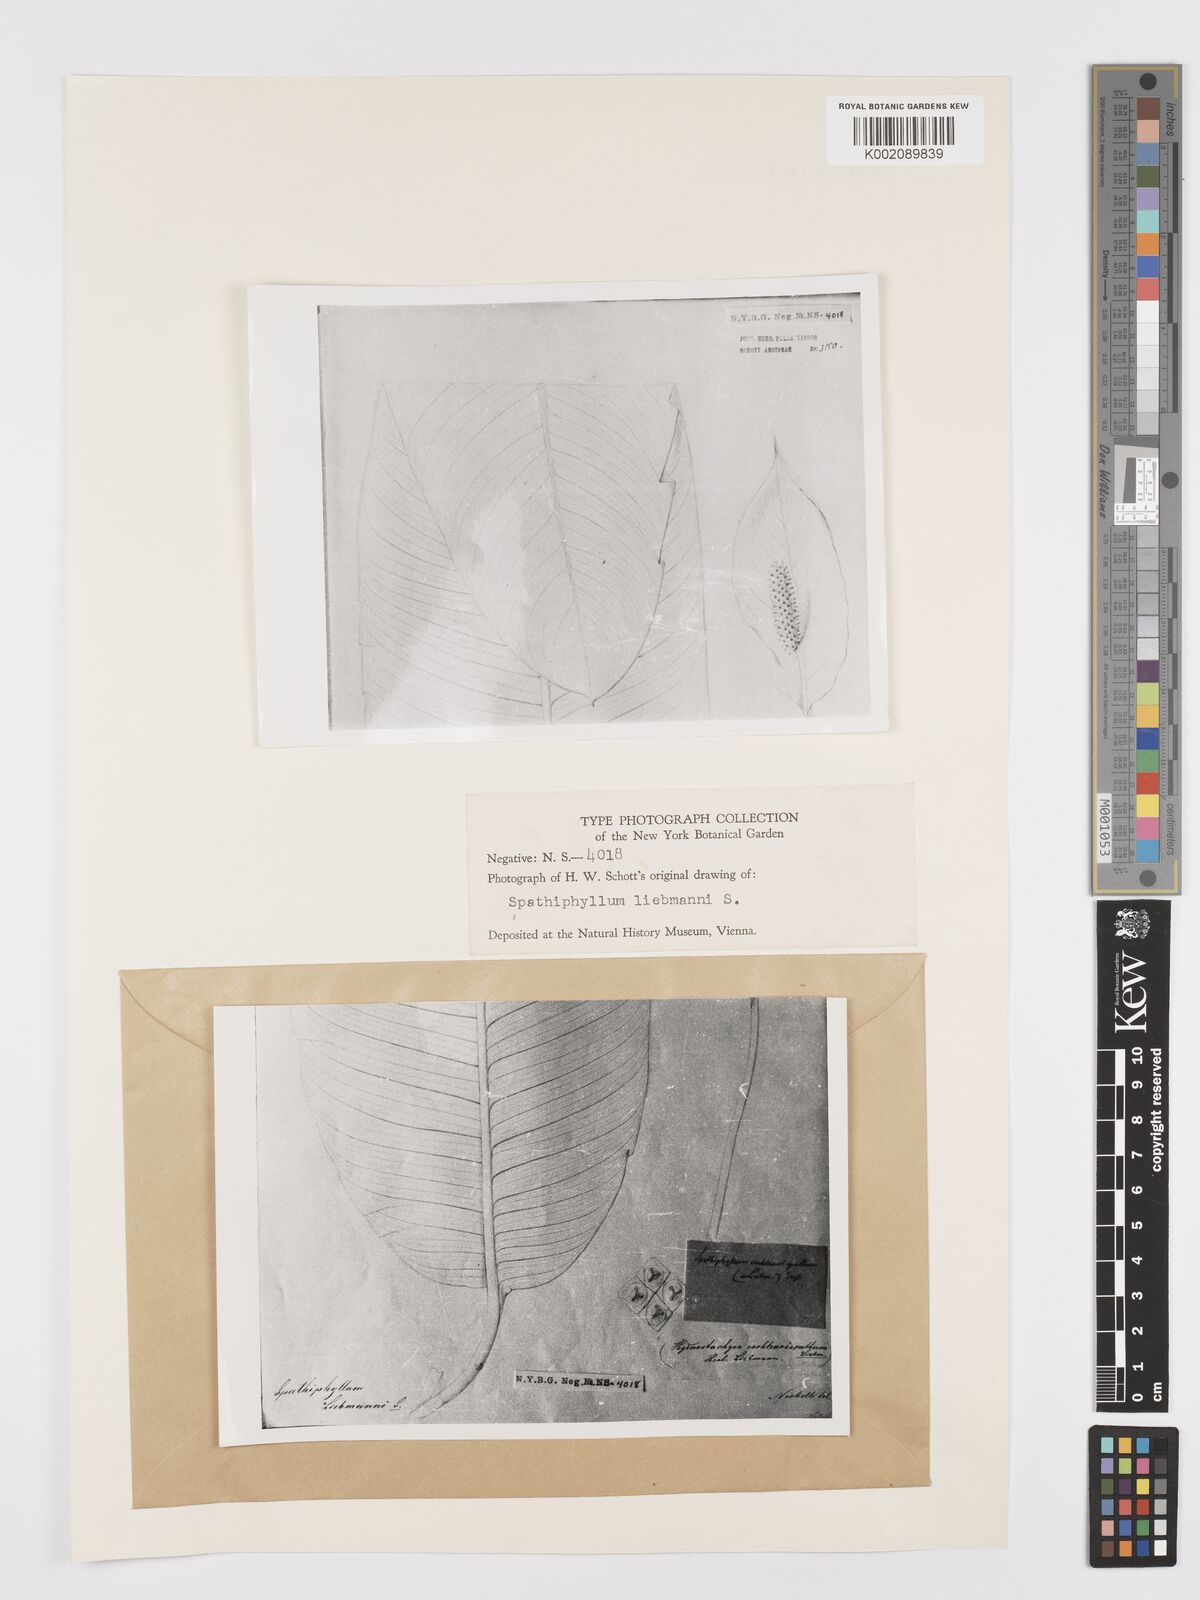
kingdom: Plantae
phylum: Tracheophyta
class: Liliopsida
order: Alismatales
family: Araceae
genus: Spathiphyllum
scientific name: Spathiphyllum cochlearispathum
